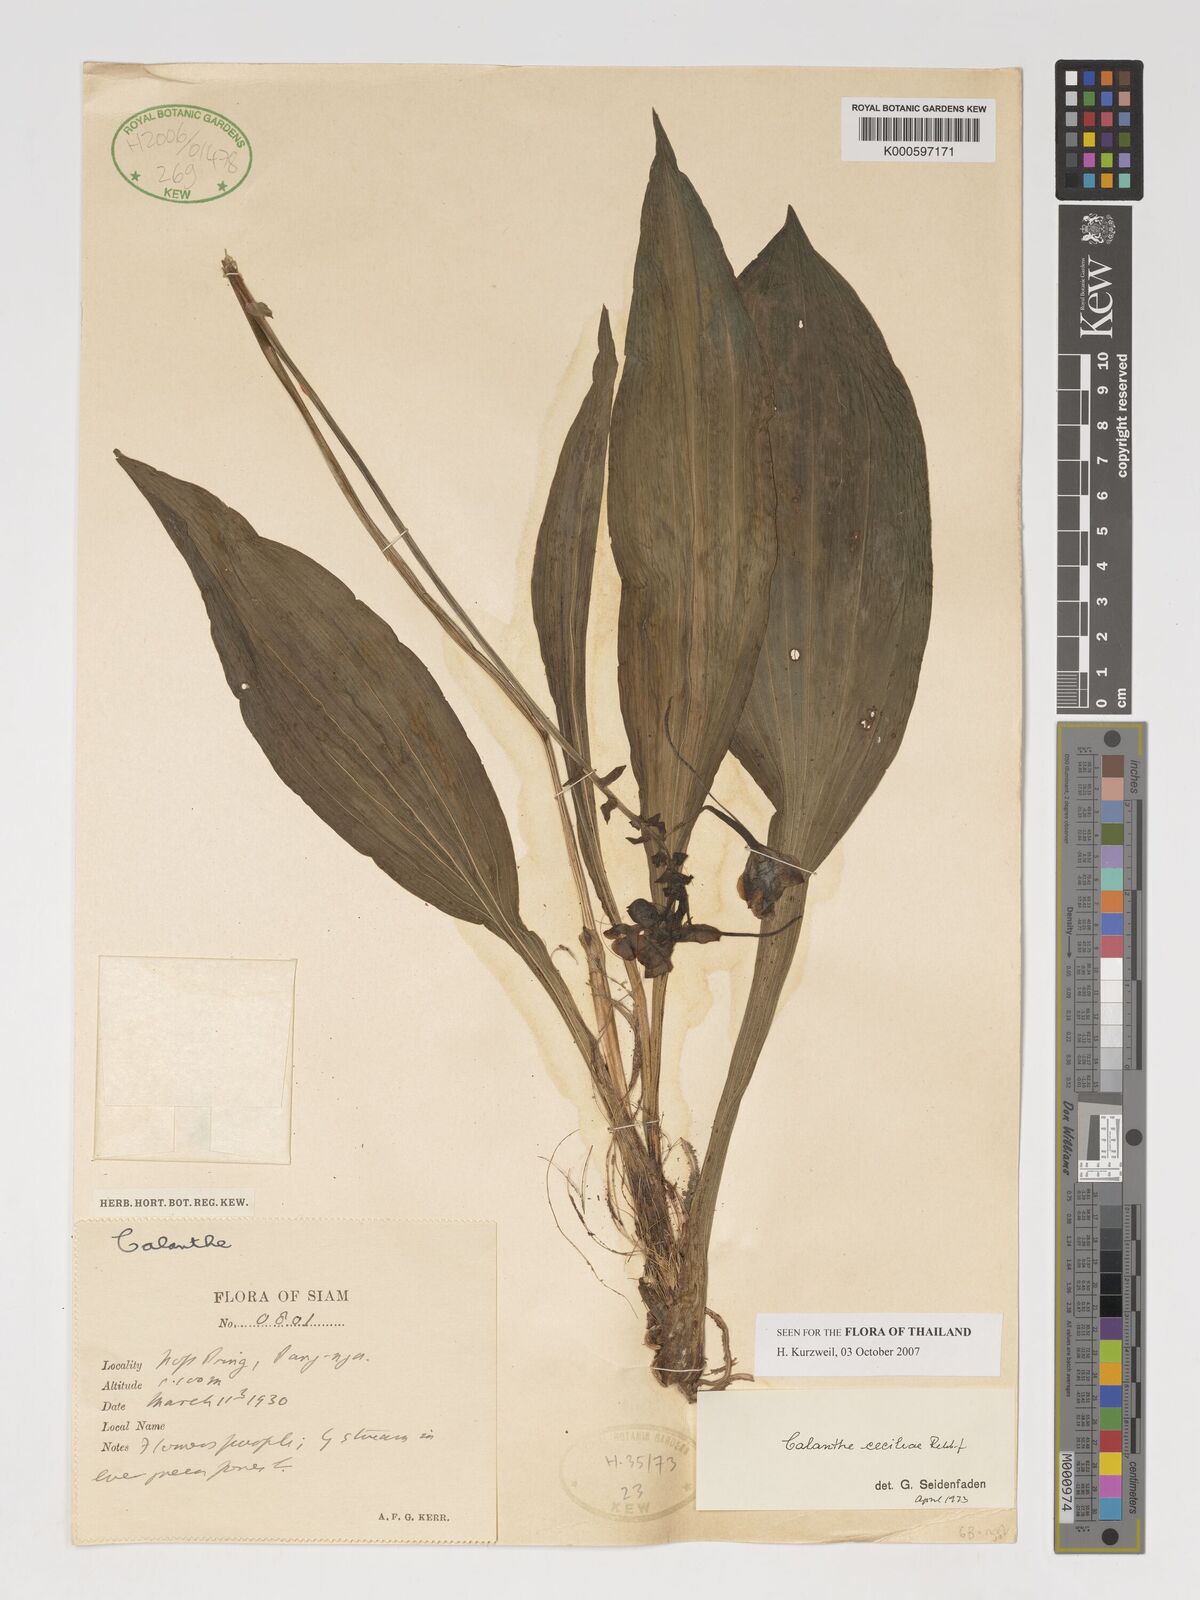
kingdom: Plantae
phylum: Tracheophyta
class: Liliopsida
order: Asparagales
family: Orchidaceae
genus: Calanthe
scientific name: Calanthe ceciliae
